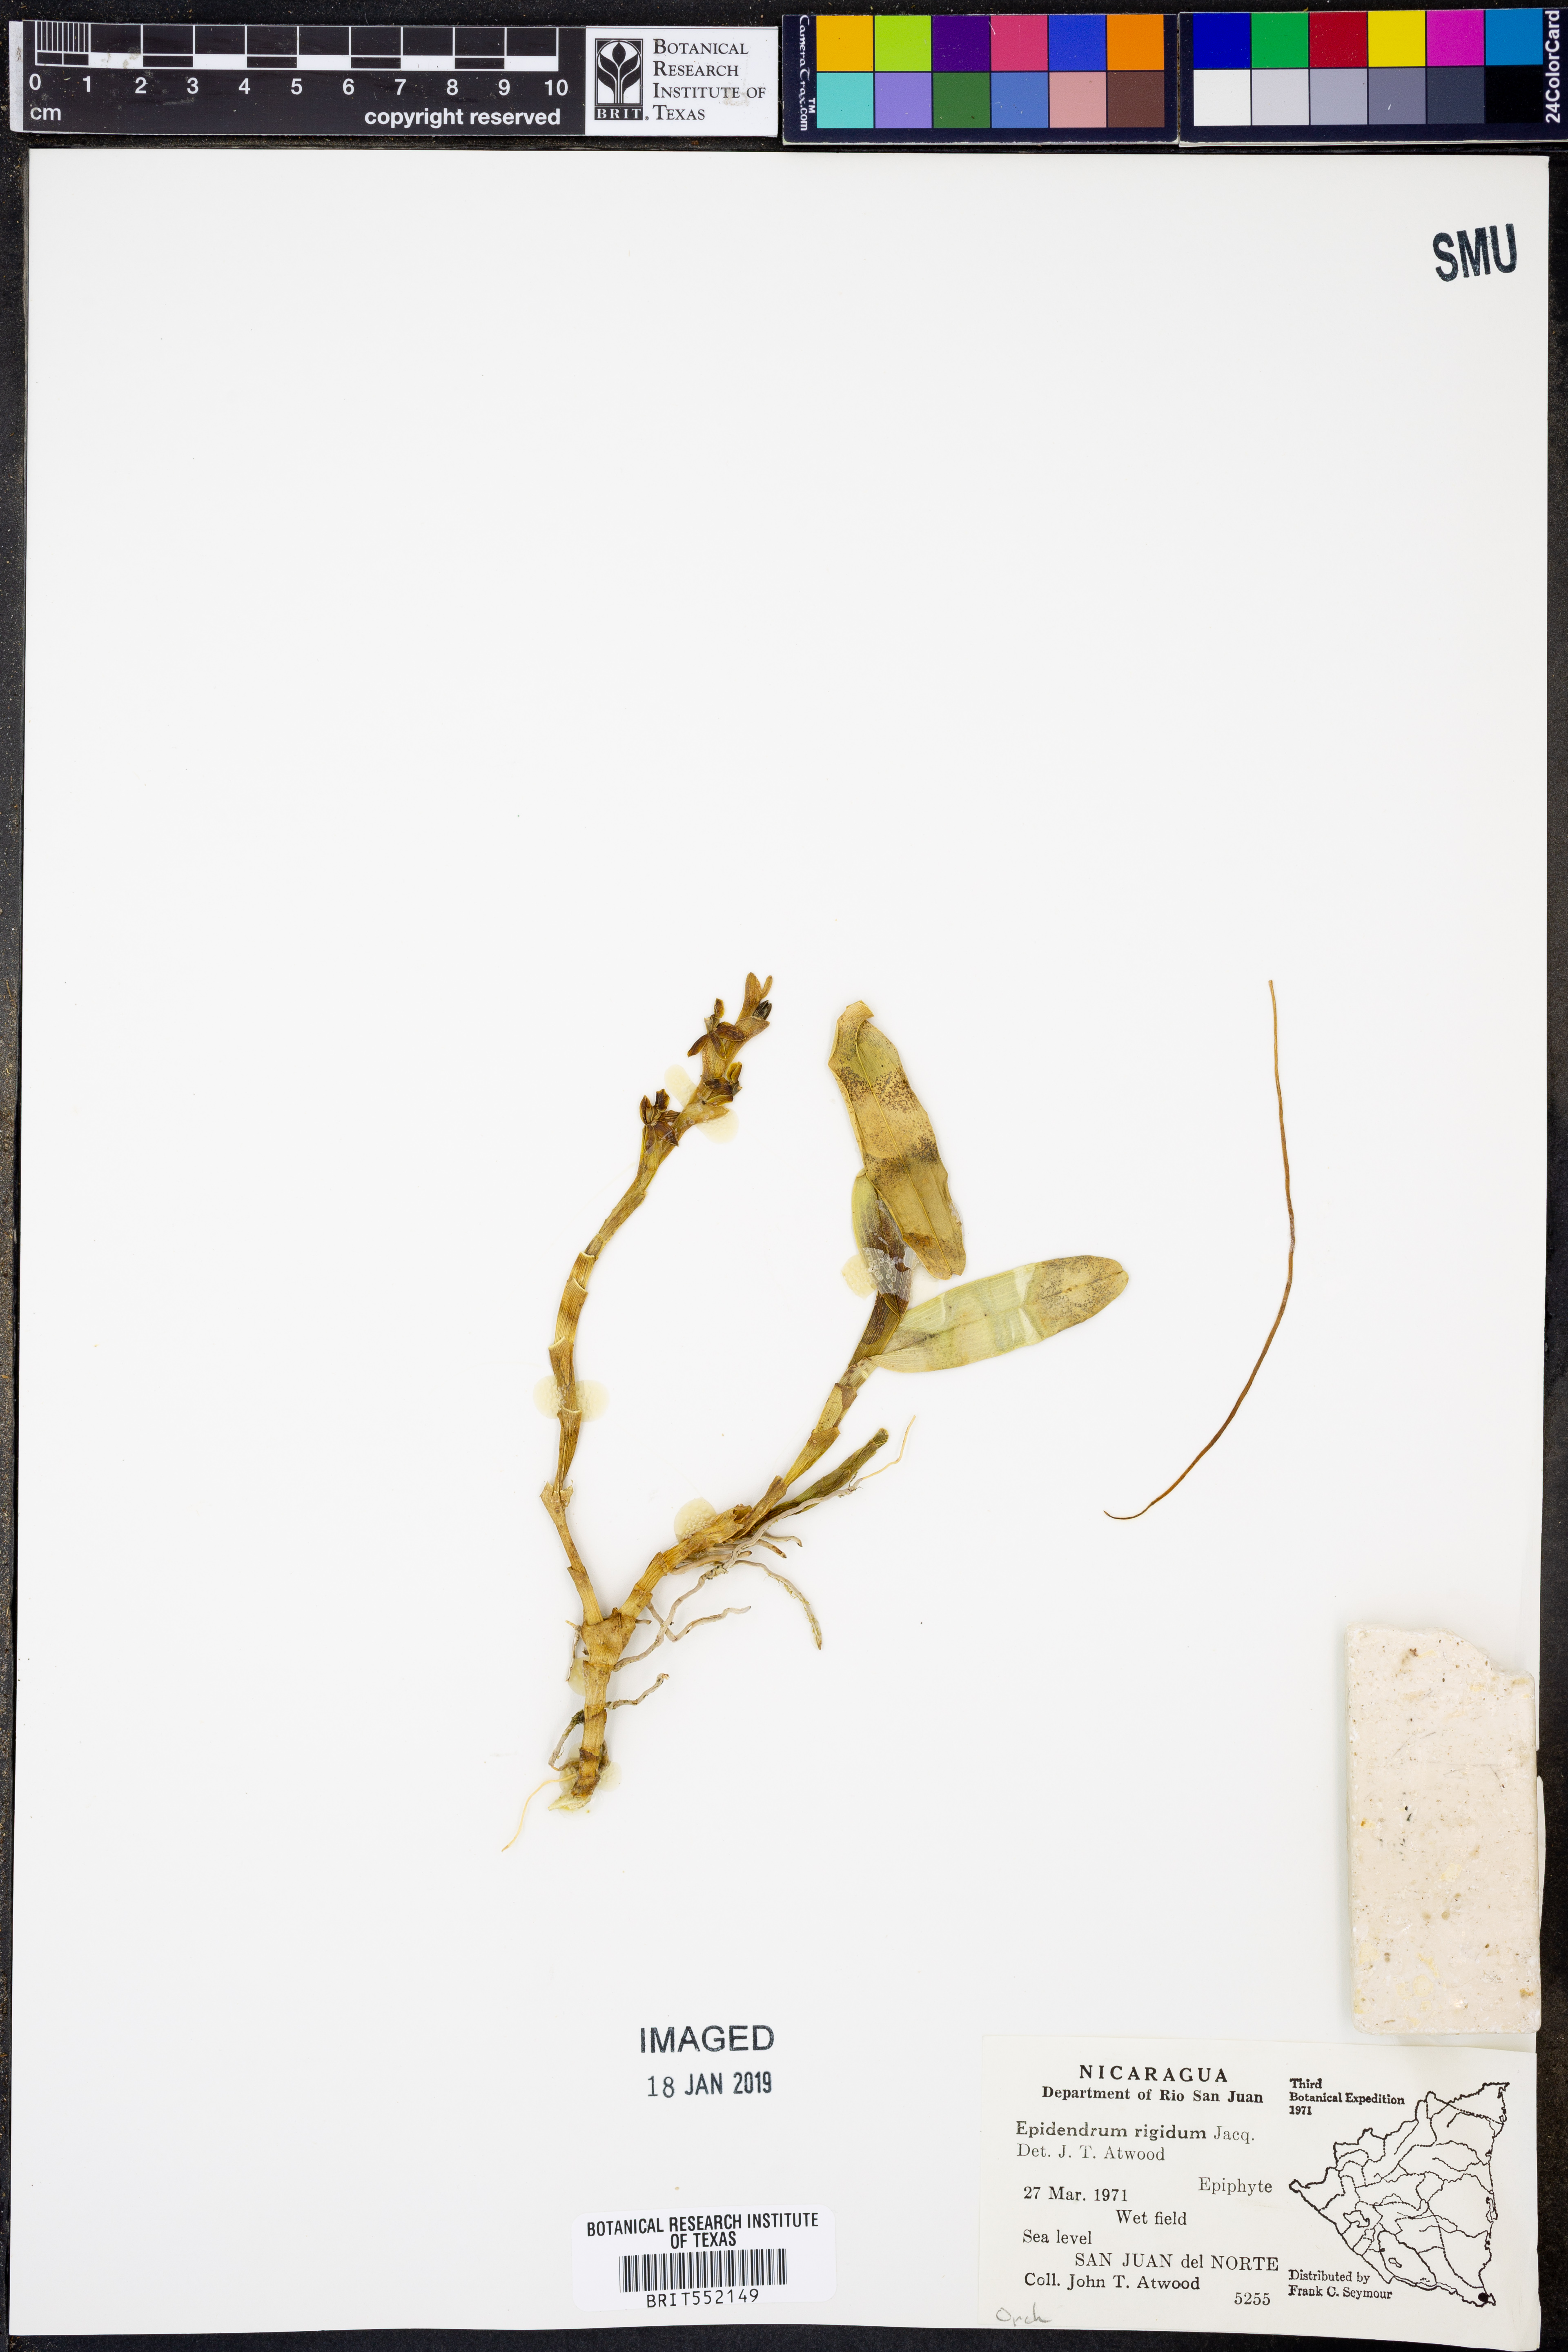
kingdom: Plantae
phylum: Tracheophyta
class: Liliopsida
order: Asparagales
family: Orchidaceae
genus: Epidendrum
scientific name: Epidendrum rigidum
